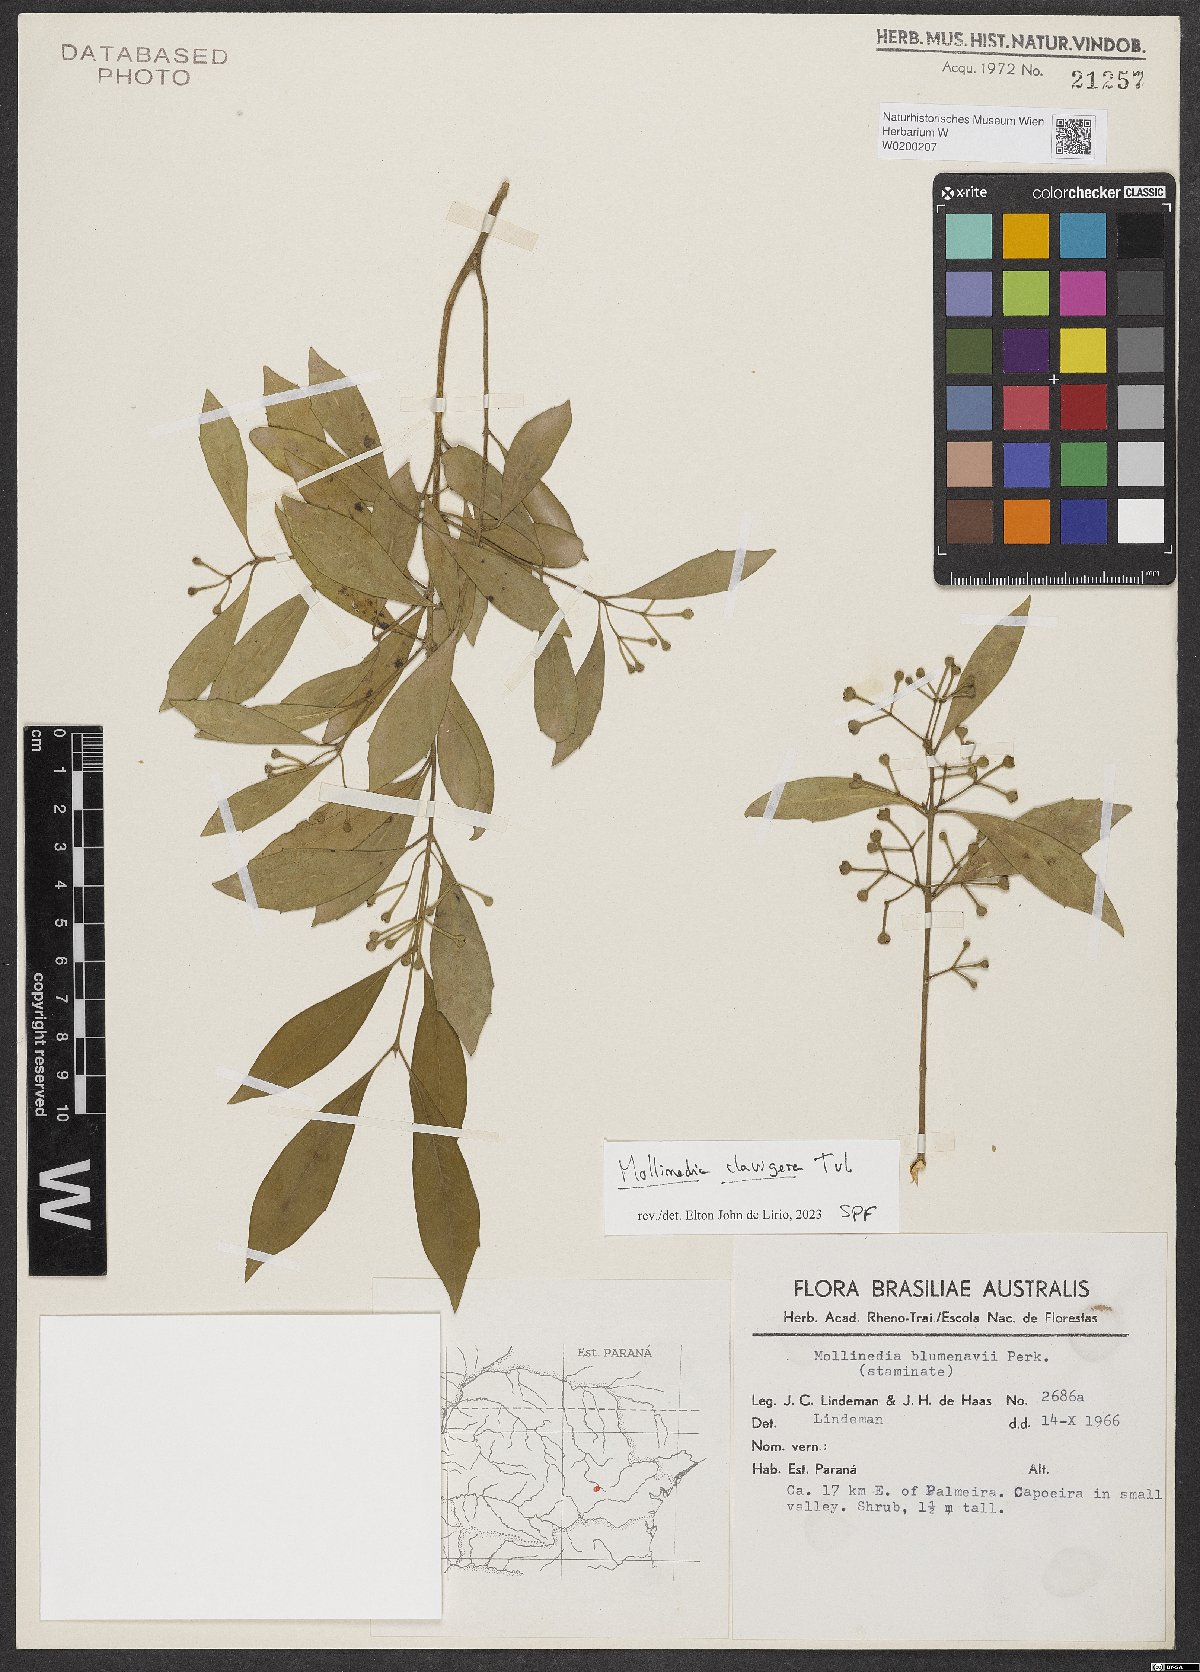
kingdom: Plantae
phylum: Tracheophyta
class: Magnoliopsida
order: Laurales
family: Monimiaceae
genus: Mollinedia
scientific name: Mollinedia clavigera
